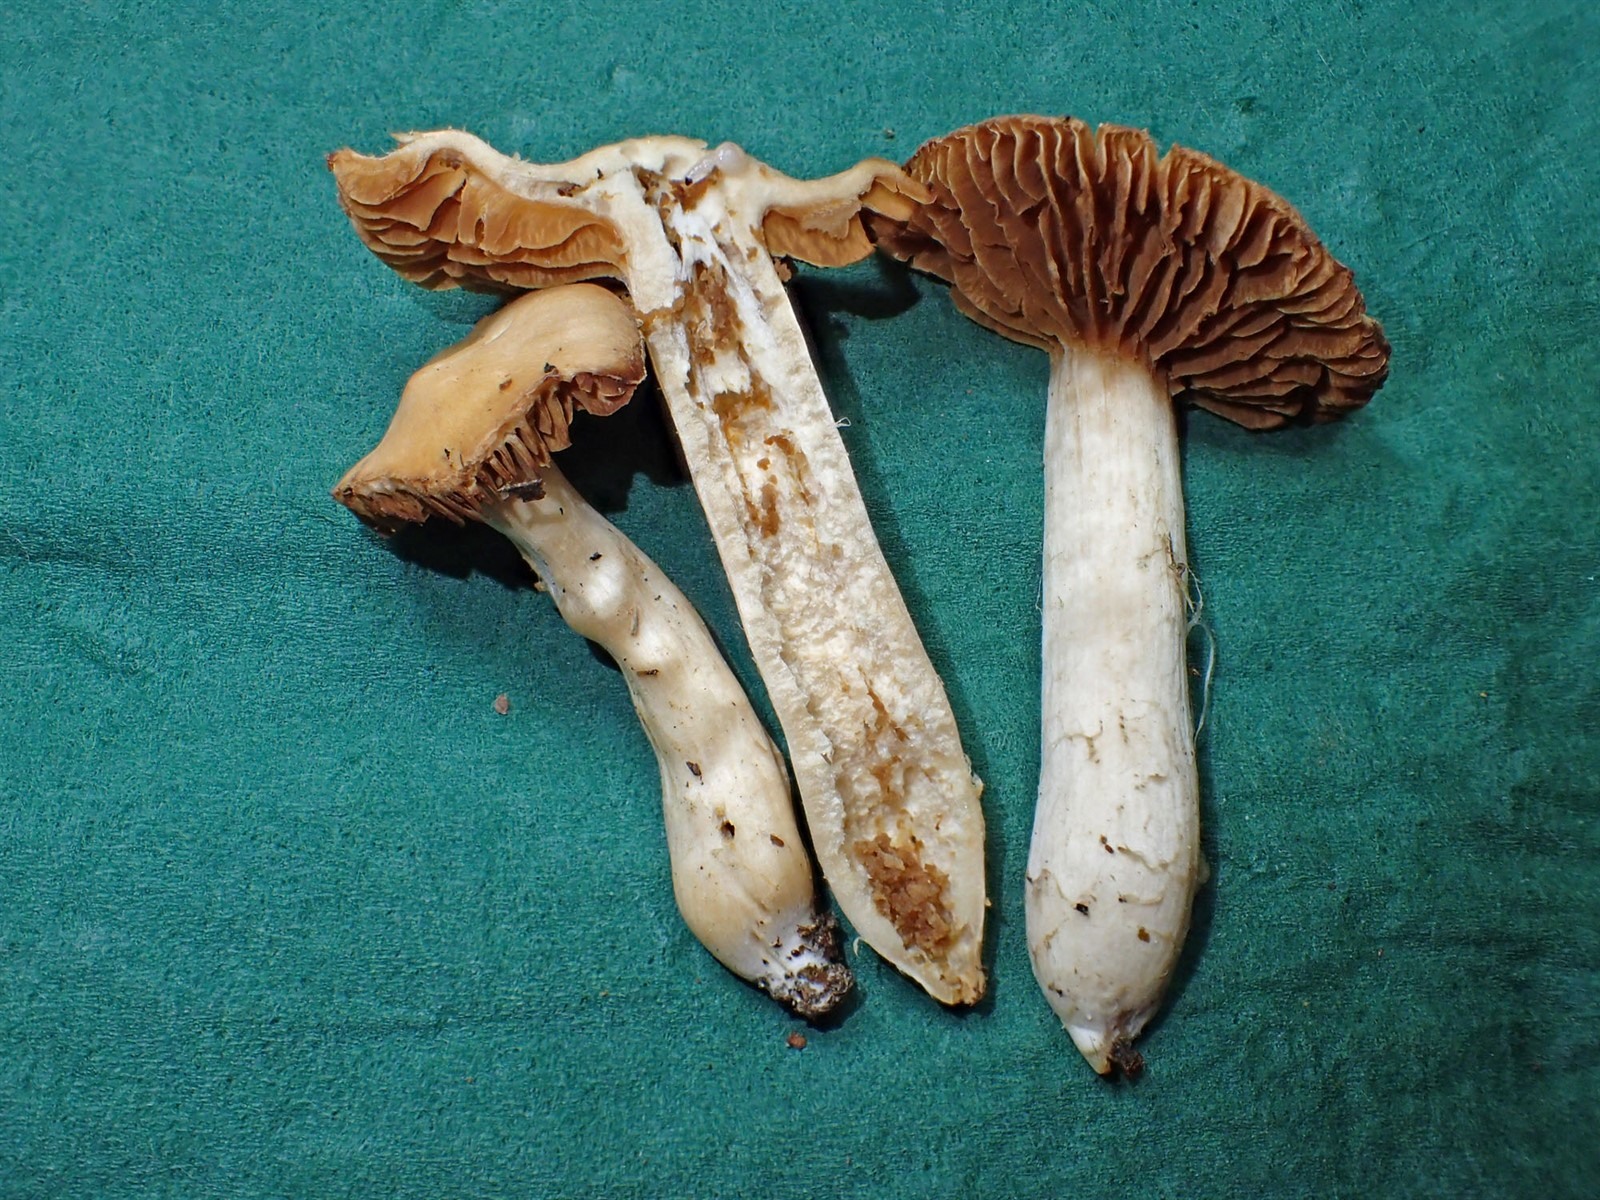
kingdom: Fungi
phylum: Basidiomycota
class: Agaricomycetes
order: Agaricales
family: Cortinariaceae
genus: Cortinarius
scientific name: Cortinarius duracinus
